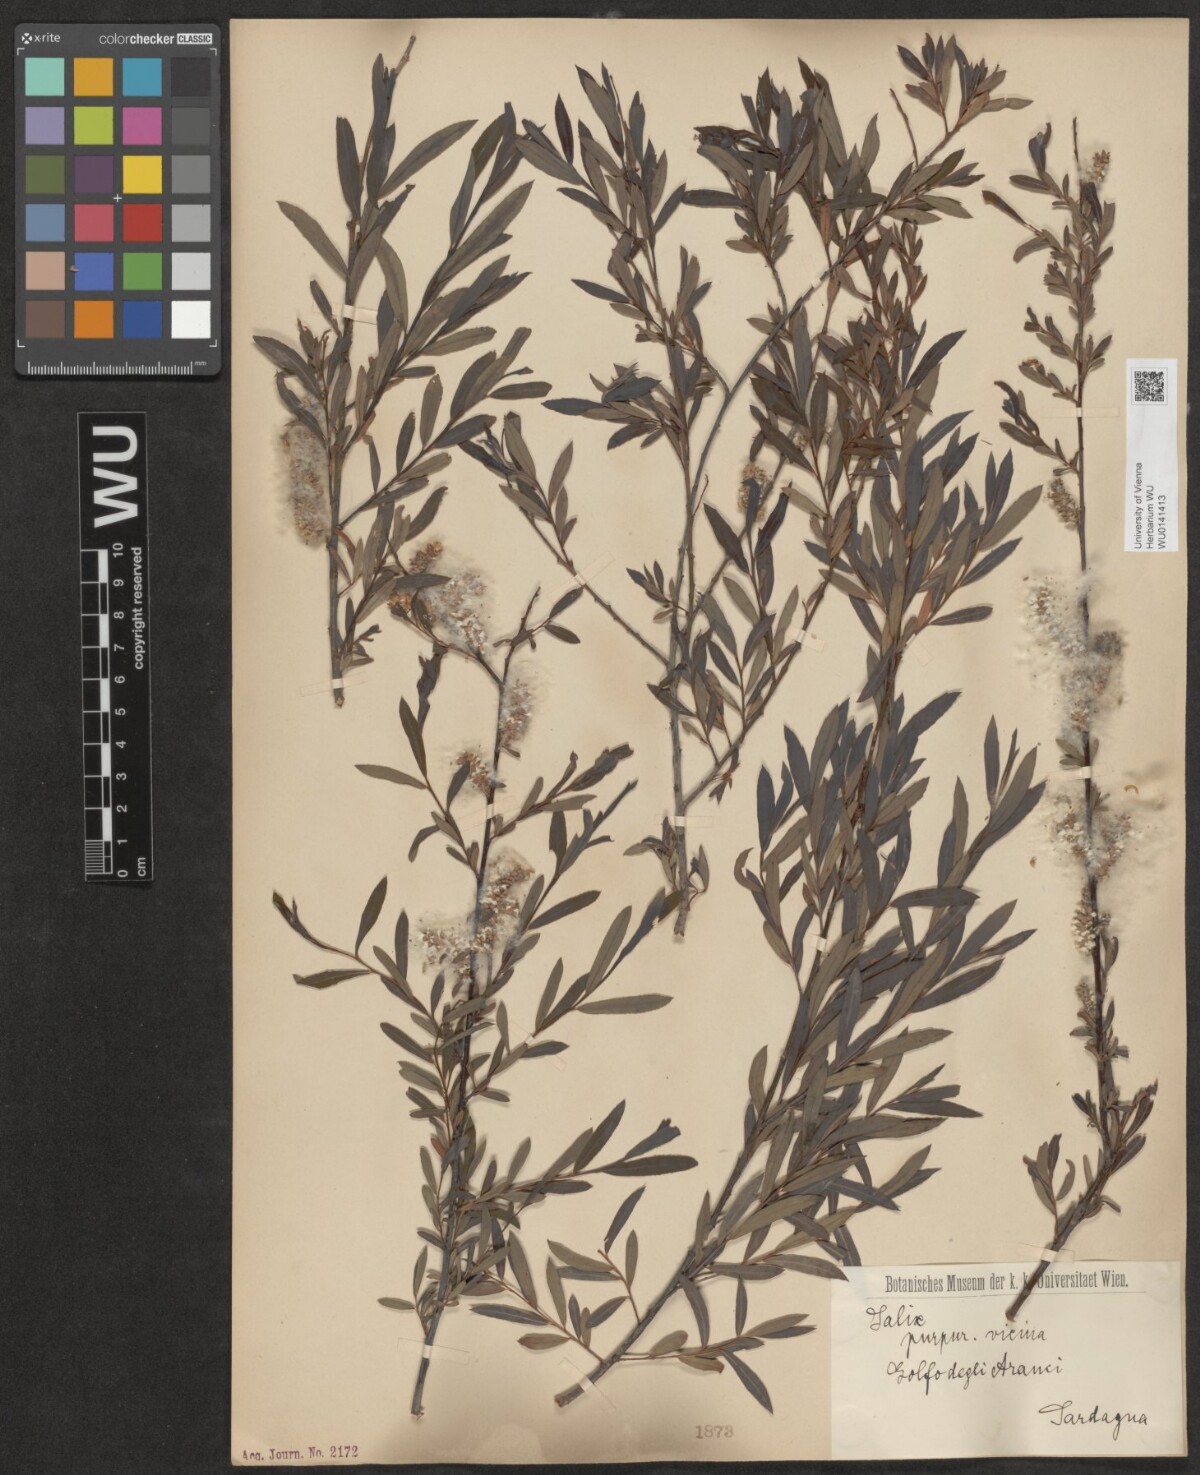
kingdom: Plantae
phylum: Tracheophyta
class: Magnoliopsida
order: Malpighiales
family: Salicaceae
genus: Salix
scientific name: Salix purpurea
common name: Purple willow
